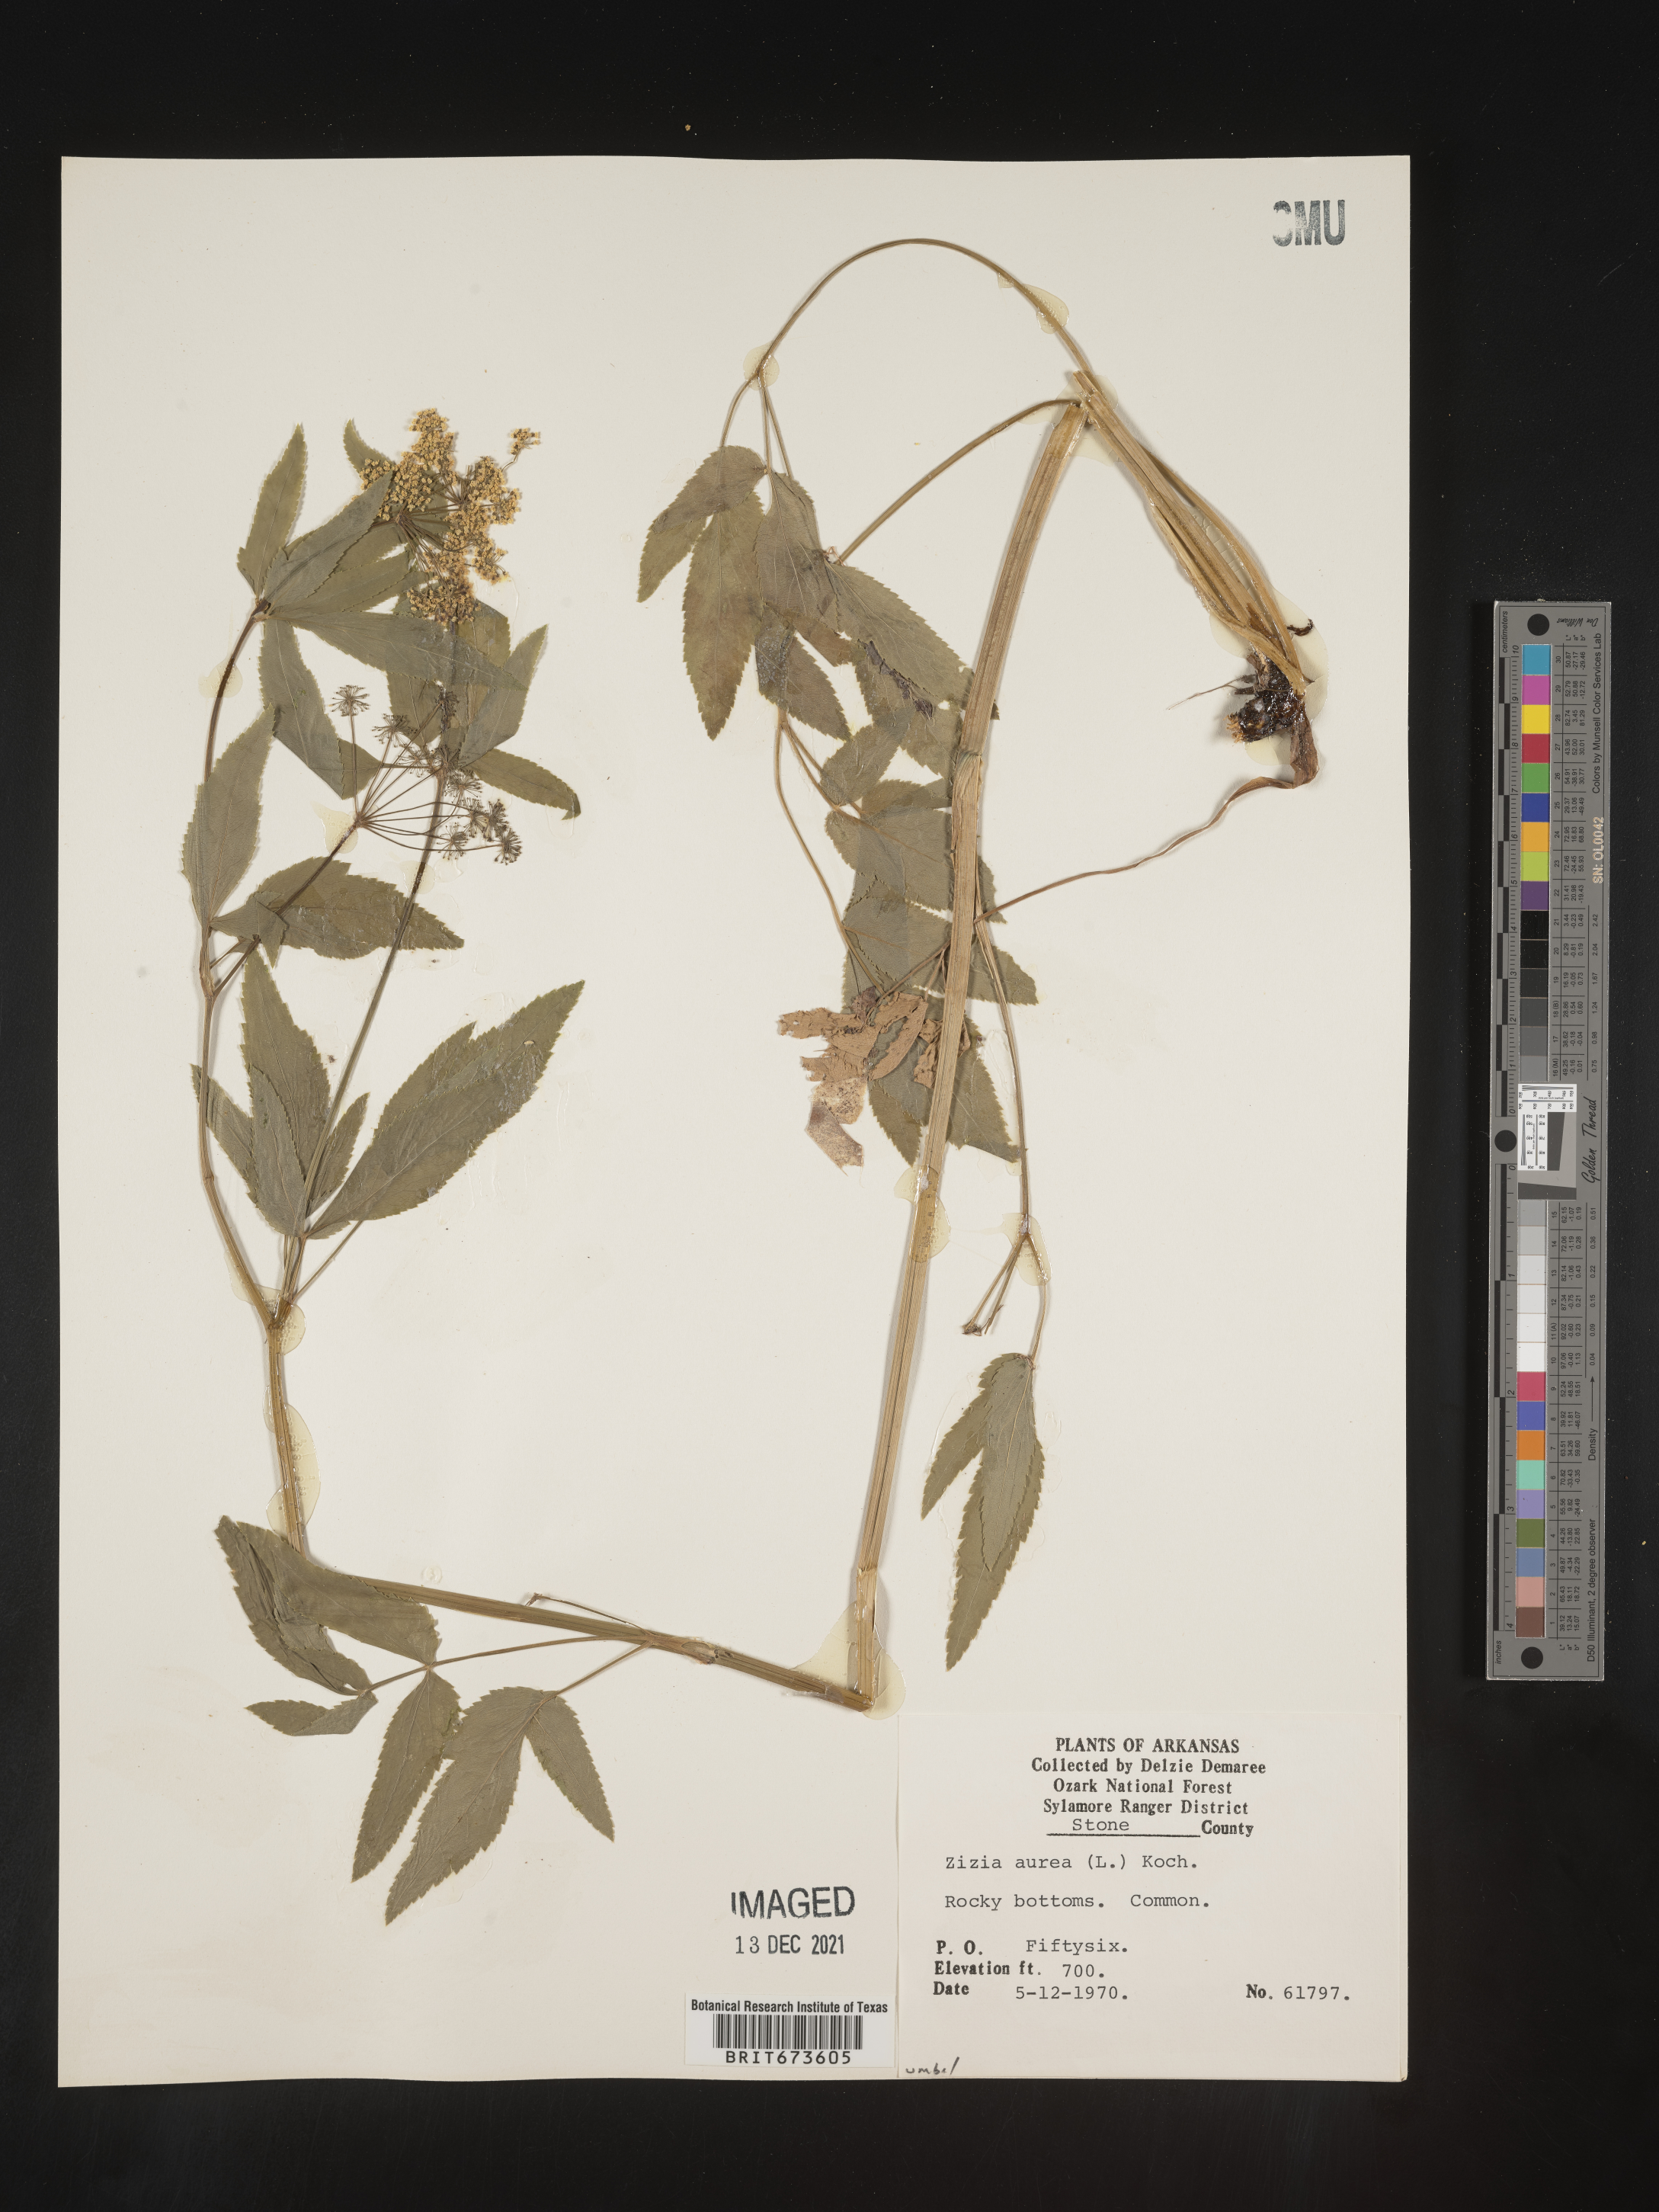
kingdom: Plantae
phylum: Tracheophyta
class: Magnoliopsida
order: Apiales
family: Apiaceae
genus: Zizia
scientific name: Zizia aurea
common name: Golden alexanders
